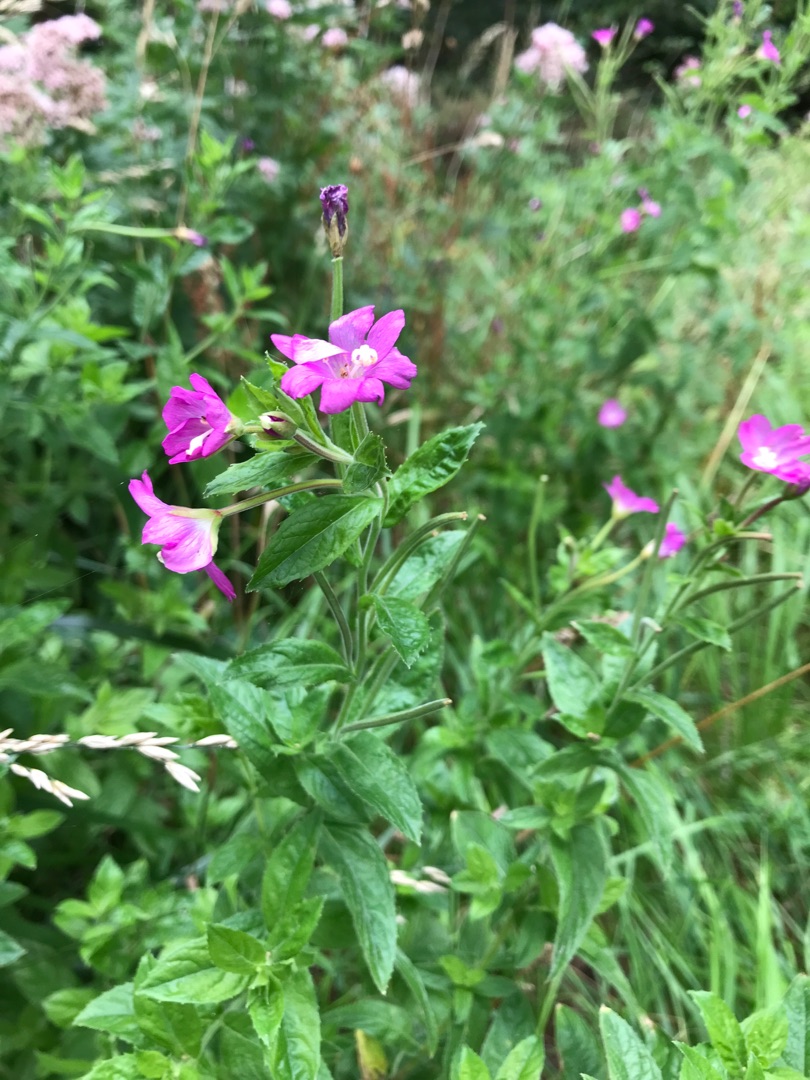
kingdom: Plantae
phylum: Tracheophyta
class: Magnoliopsida
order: Myrtales
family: Onagraceae
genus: Epilobium
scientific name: Epilobium hirsutum
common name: Lådden dueurt
